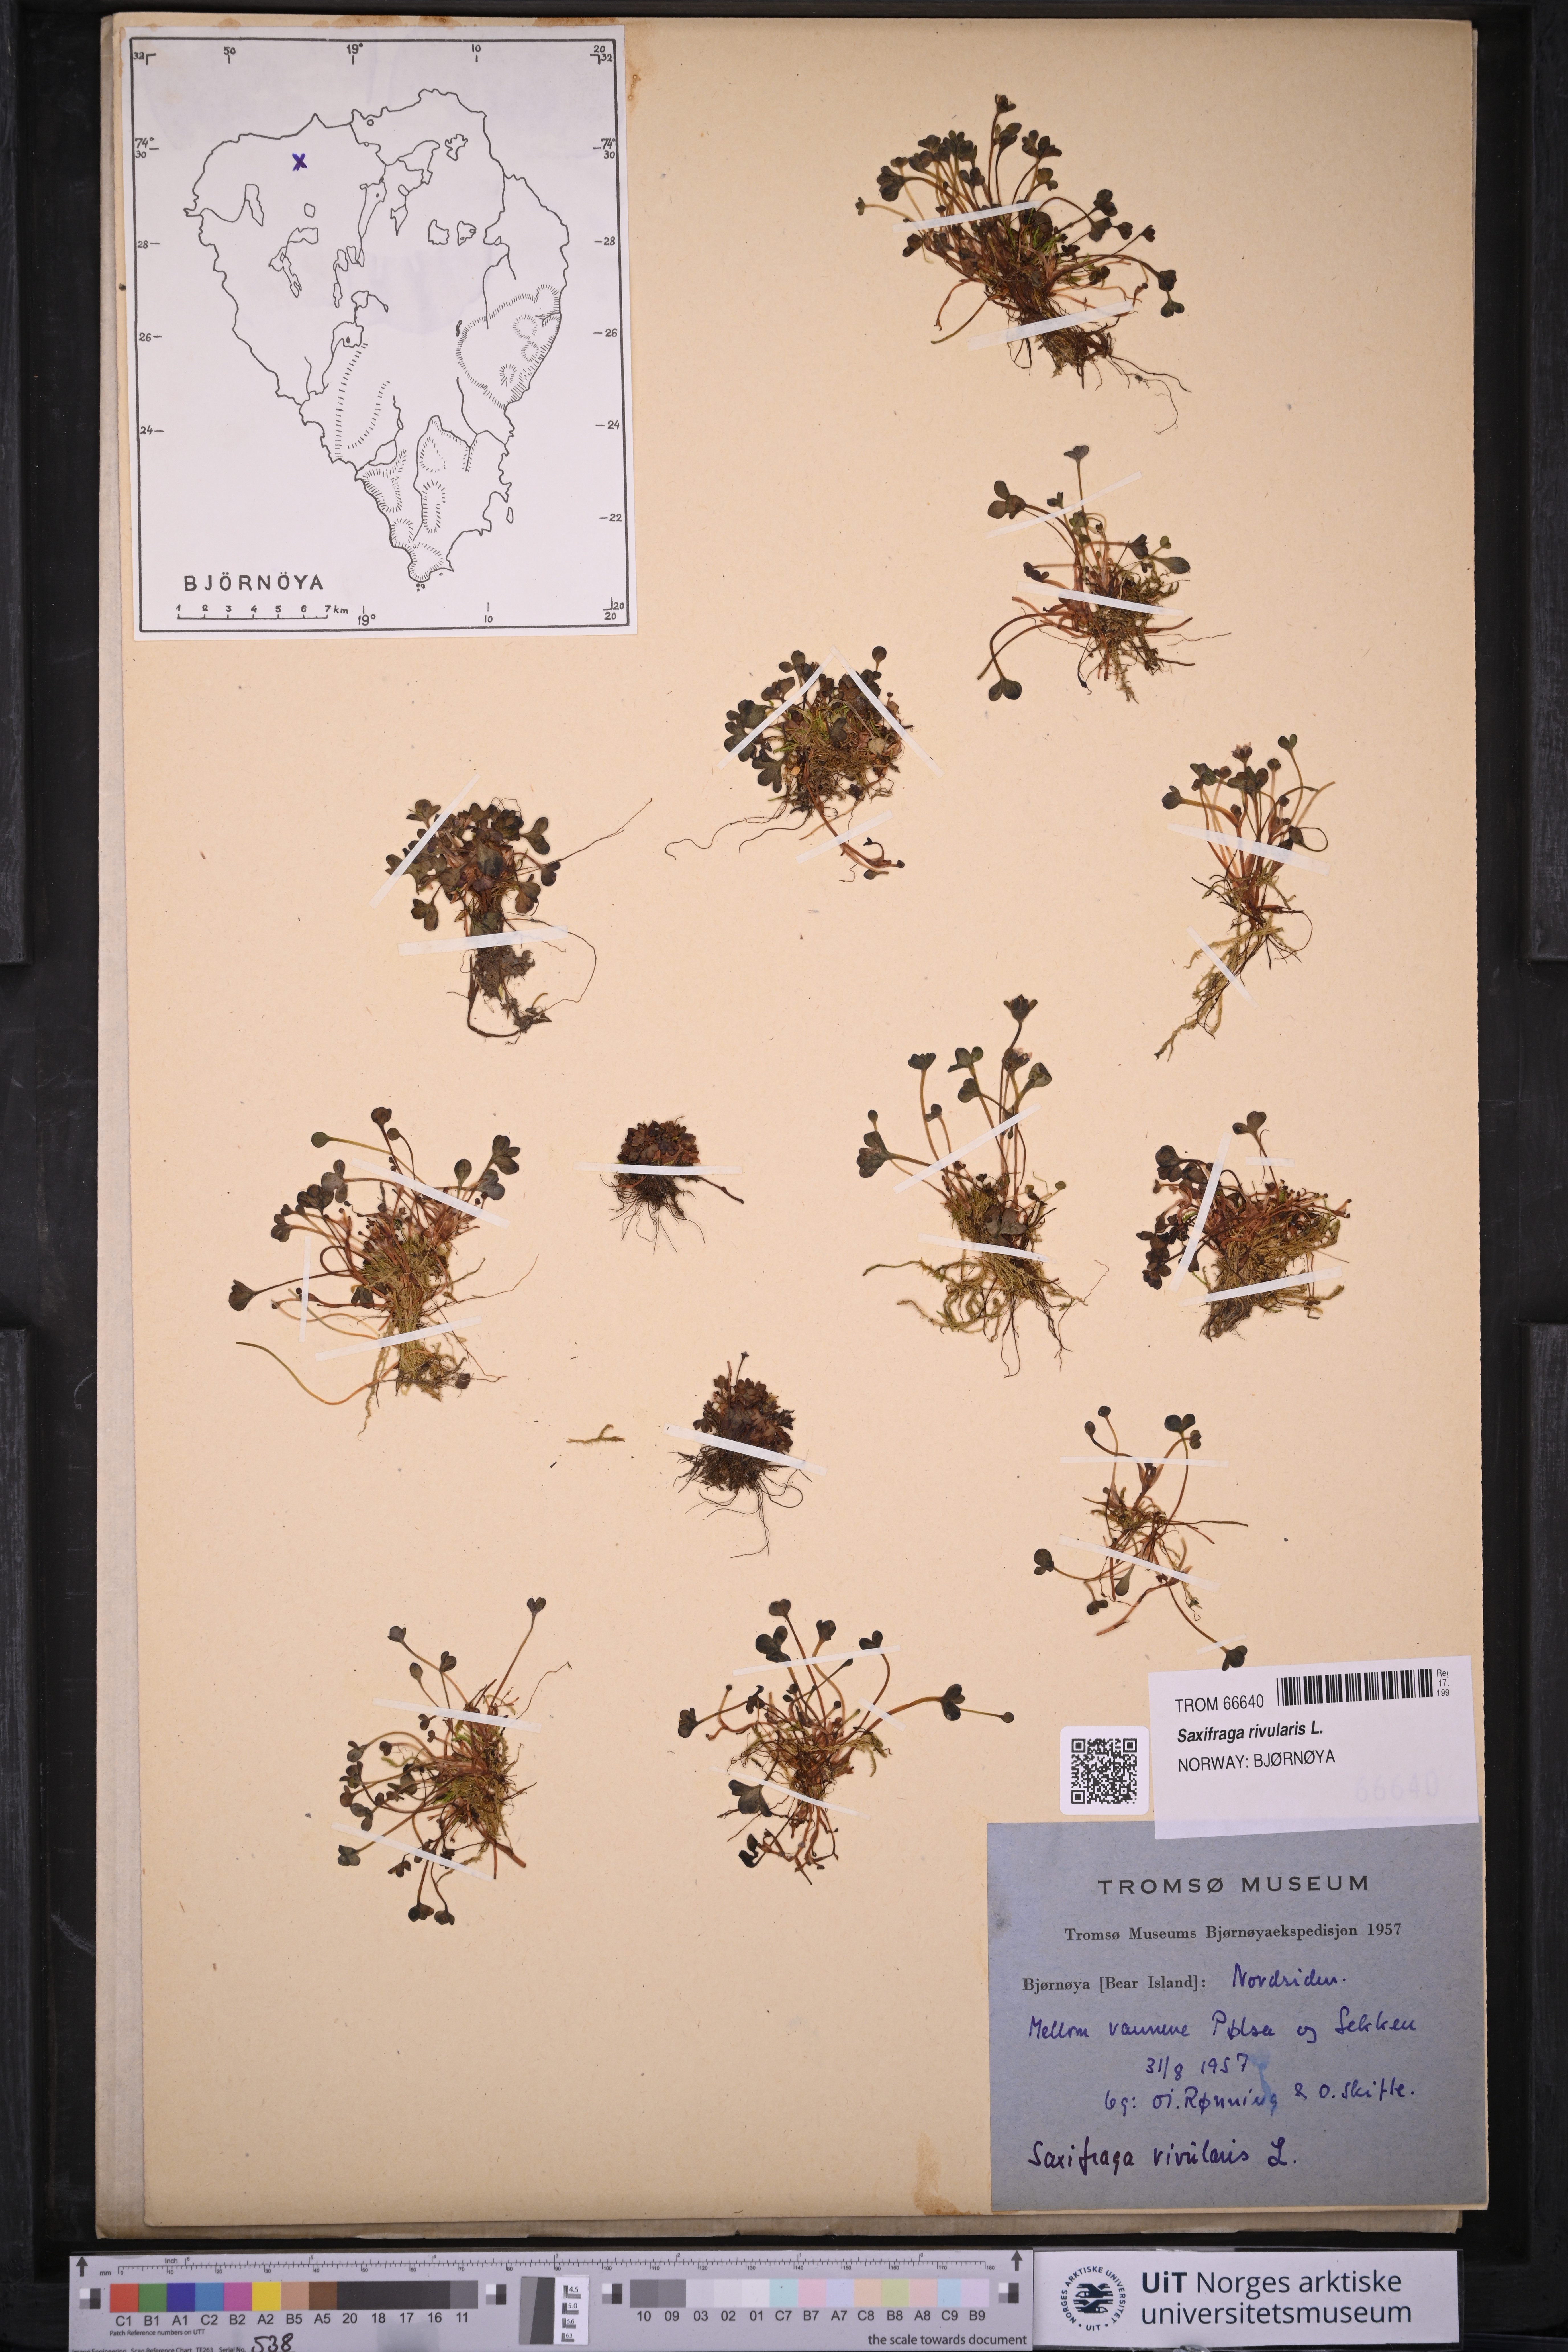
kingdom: Plantae
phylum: Tracheophyta
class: Magnoliopsida
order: Saxifragales
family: Saxifragaceae
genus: Saxifraga
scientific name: Saxifraga rivularis
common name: Highland saxifrage
